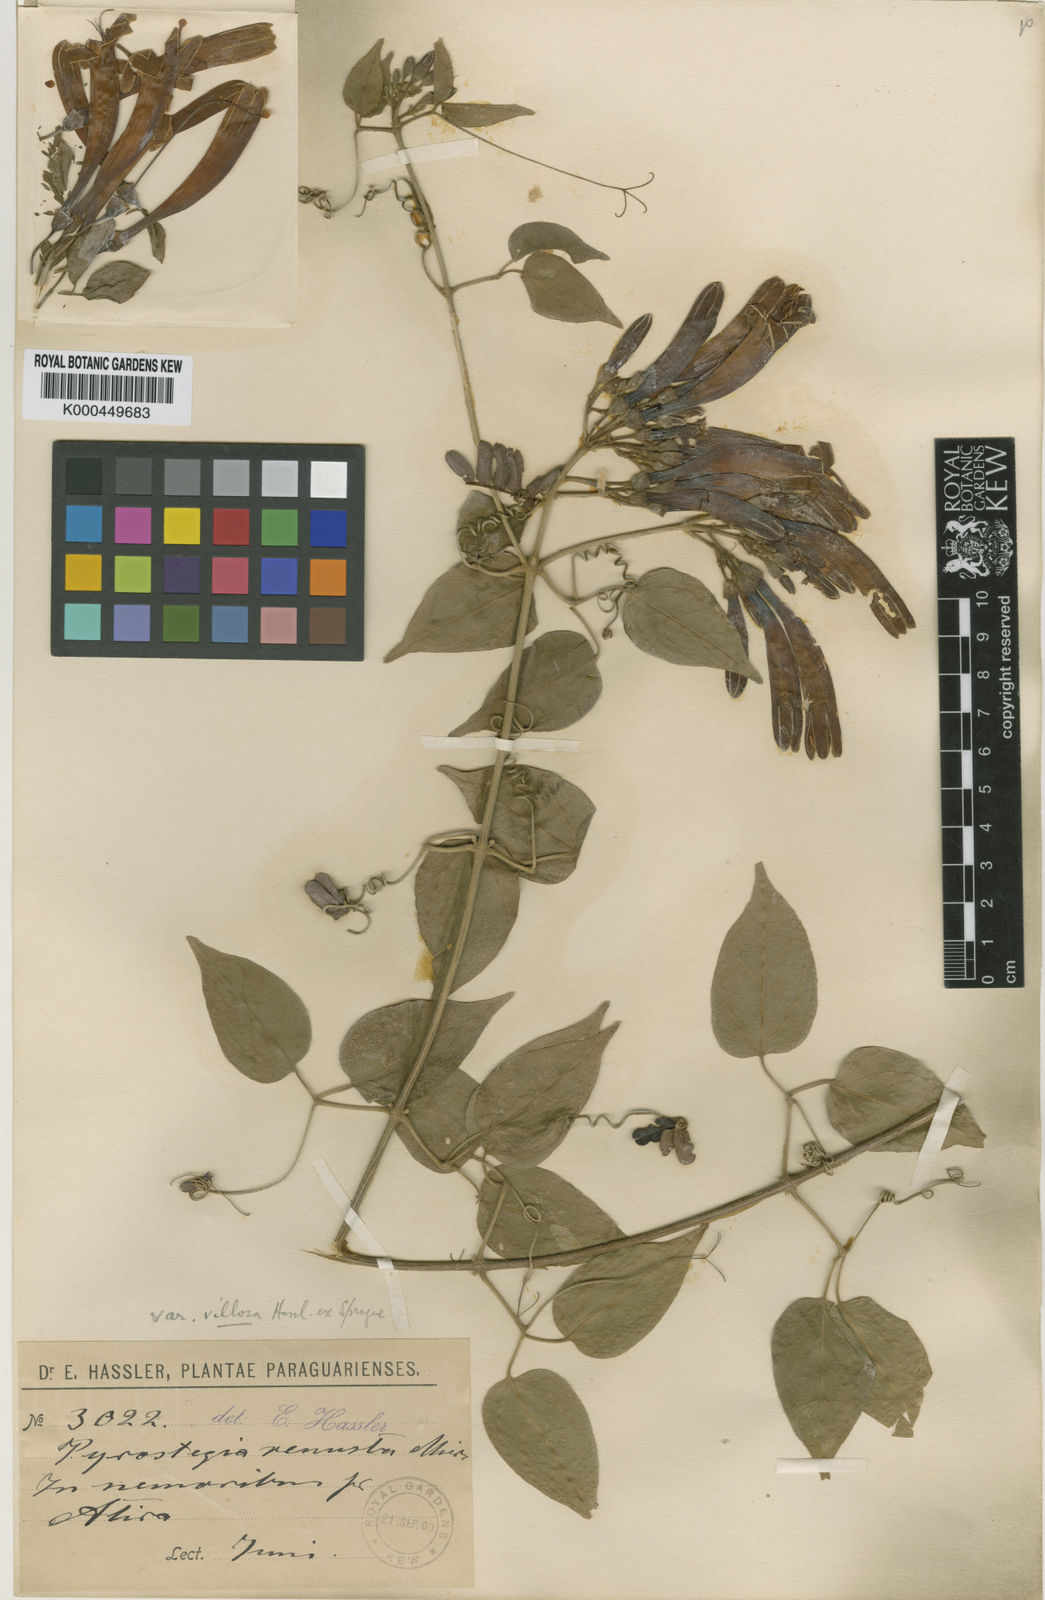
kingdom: Plantae
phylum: Tracheophyta
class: Magnoliopsida
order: Lamiales
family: Bignoniaceae
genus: Pyrostegia
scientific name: Pyrostegia venusta
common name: Flamevine
